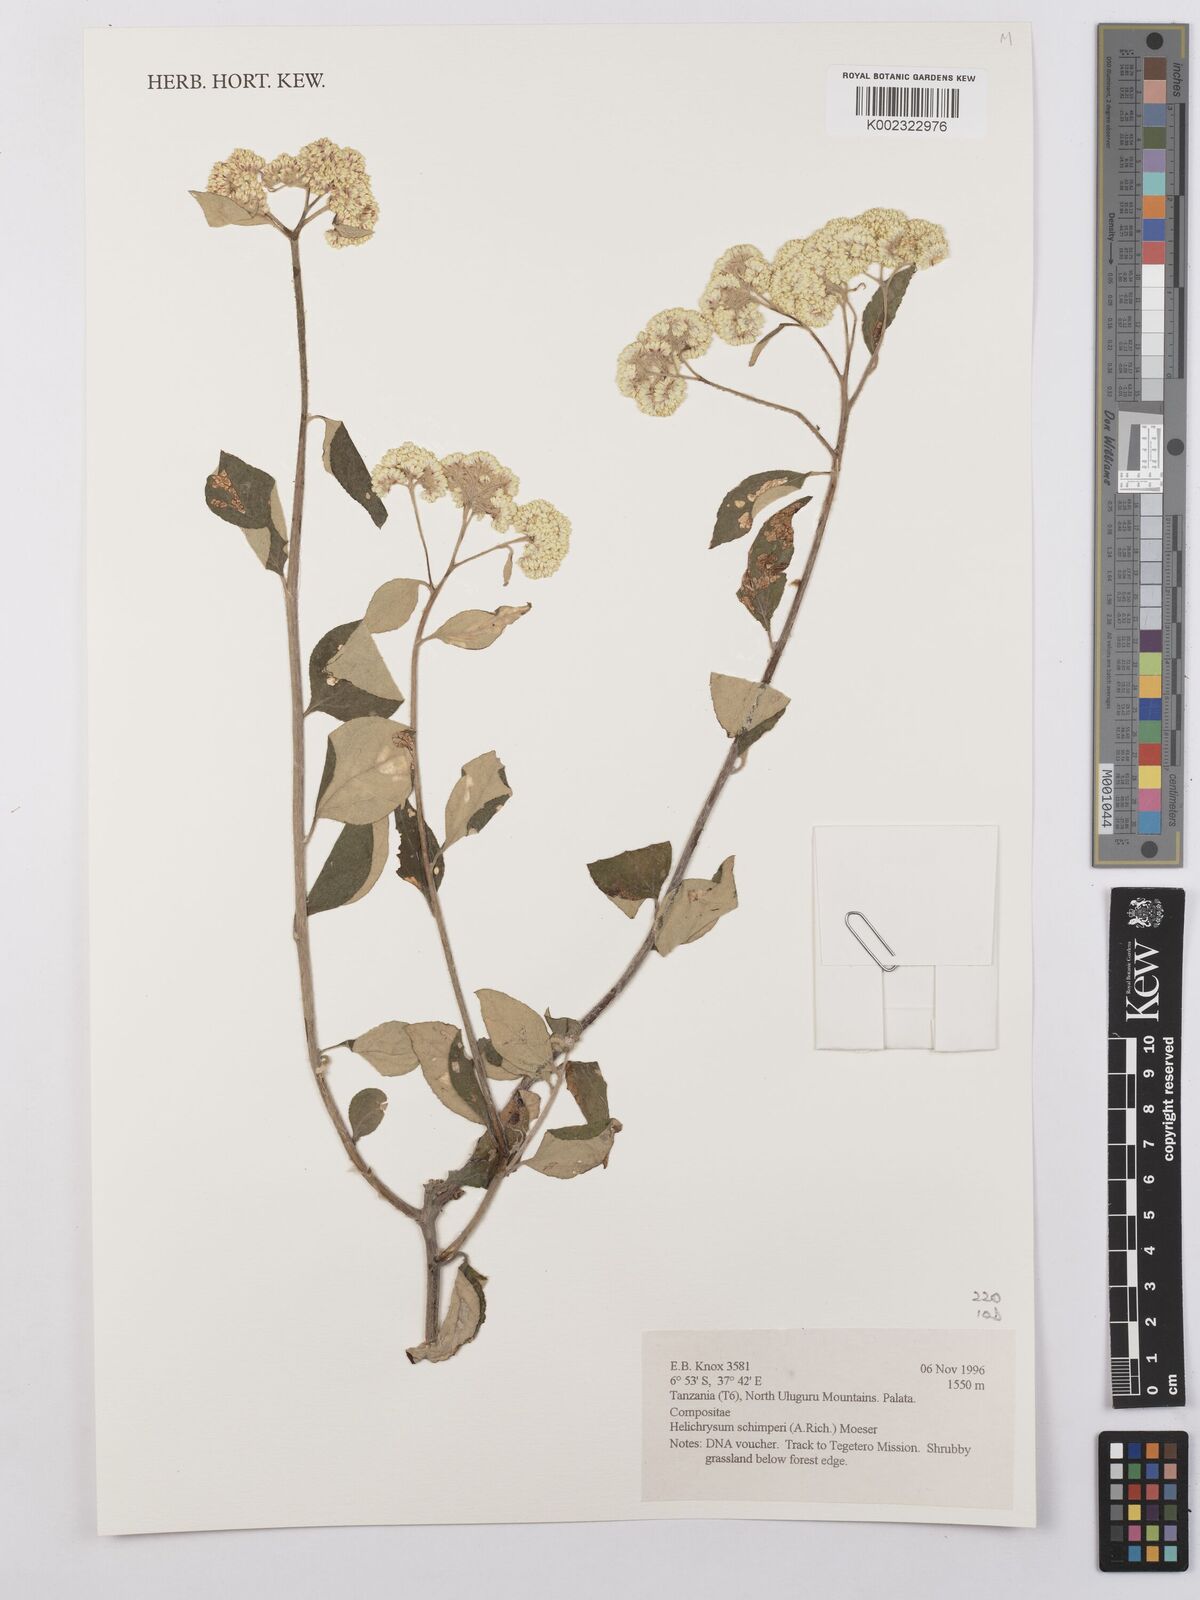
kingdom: Plantae
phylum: Tracheophyta
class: Magnoliopsida
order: Asterales
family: Asteraceae
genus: Helichrysum
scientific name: Helichrysum schimperi
